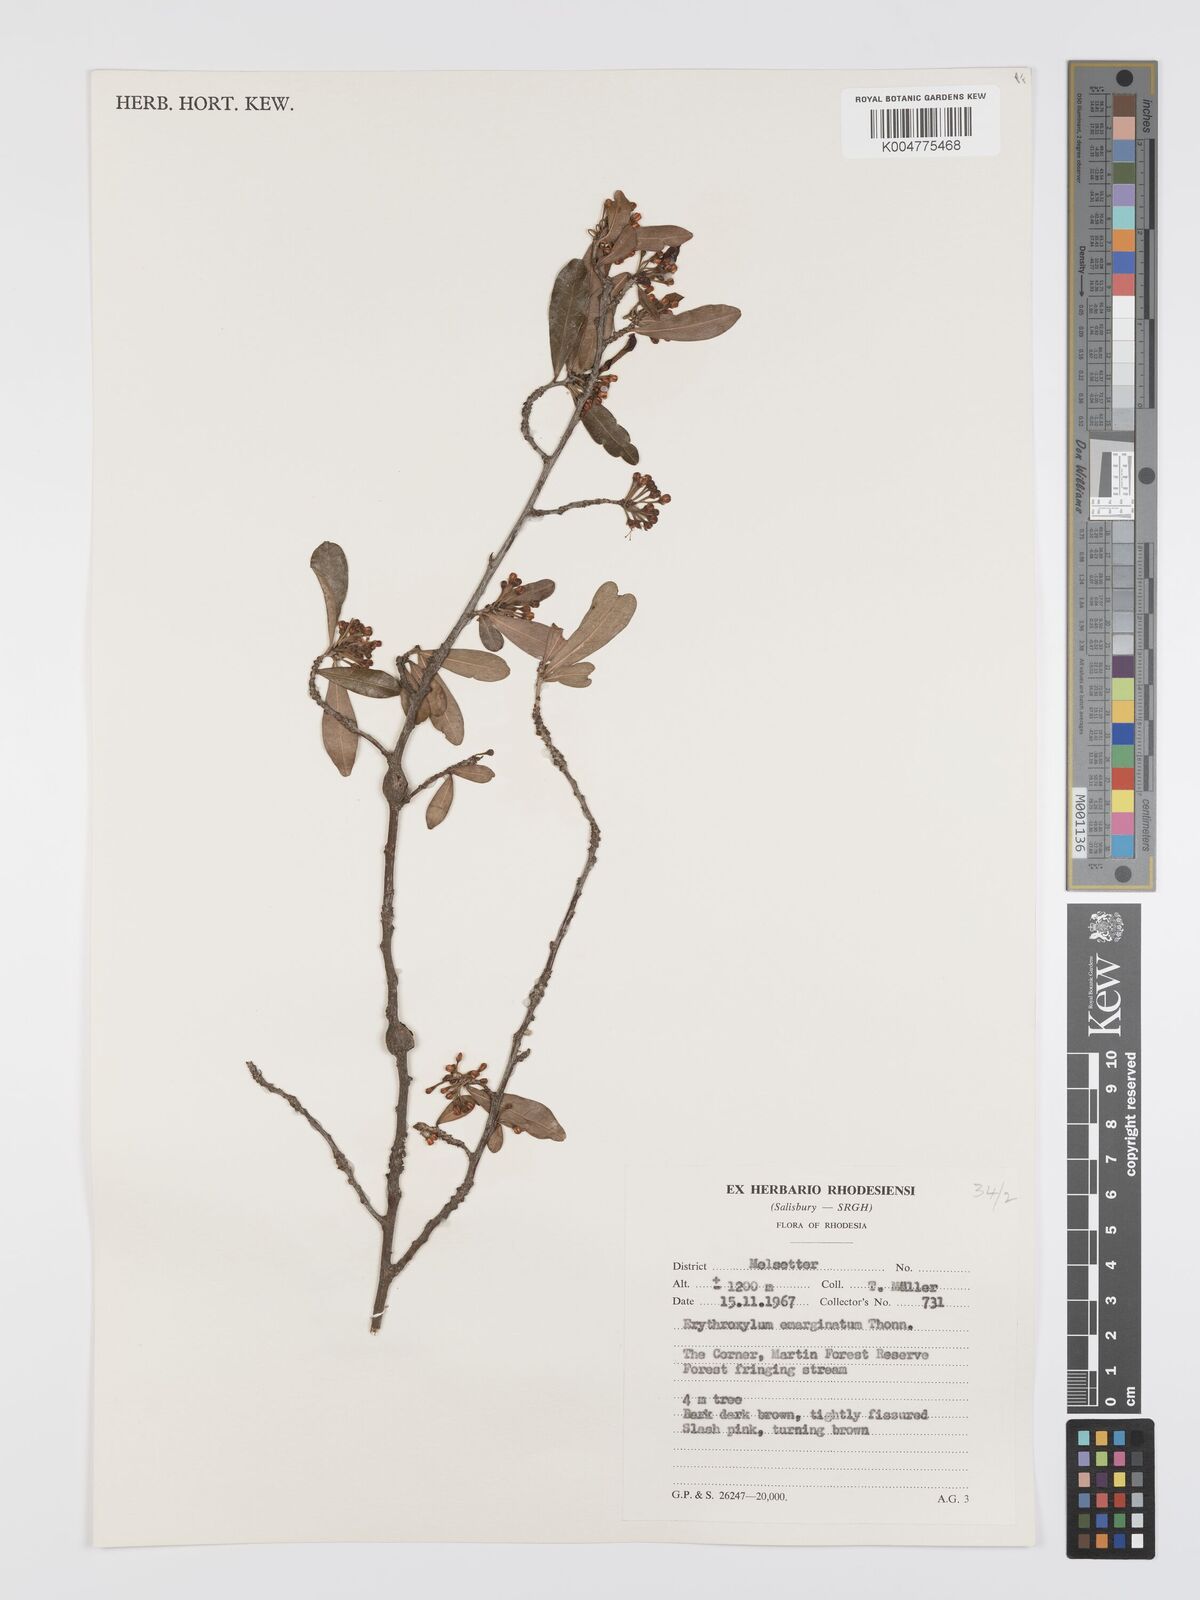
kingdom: Plantae
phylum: Tracheophyta
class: Magnoliopsida
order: Malpighiales
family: Erythroxylaceae
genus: Erythroxylum
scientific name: Erythroxylum emarginatum
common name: African coca-tree
